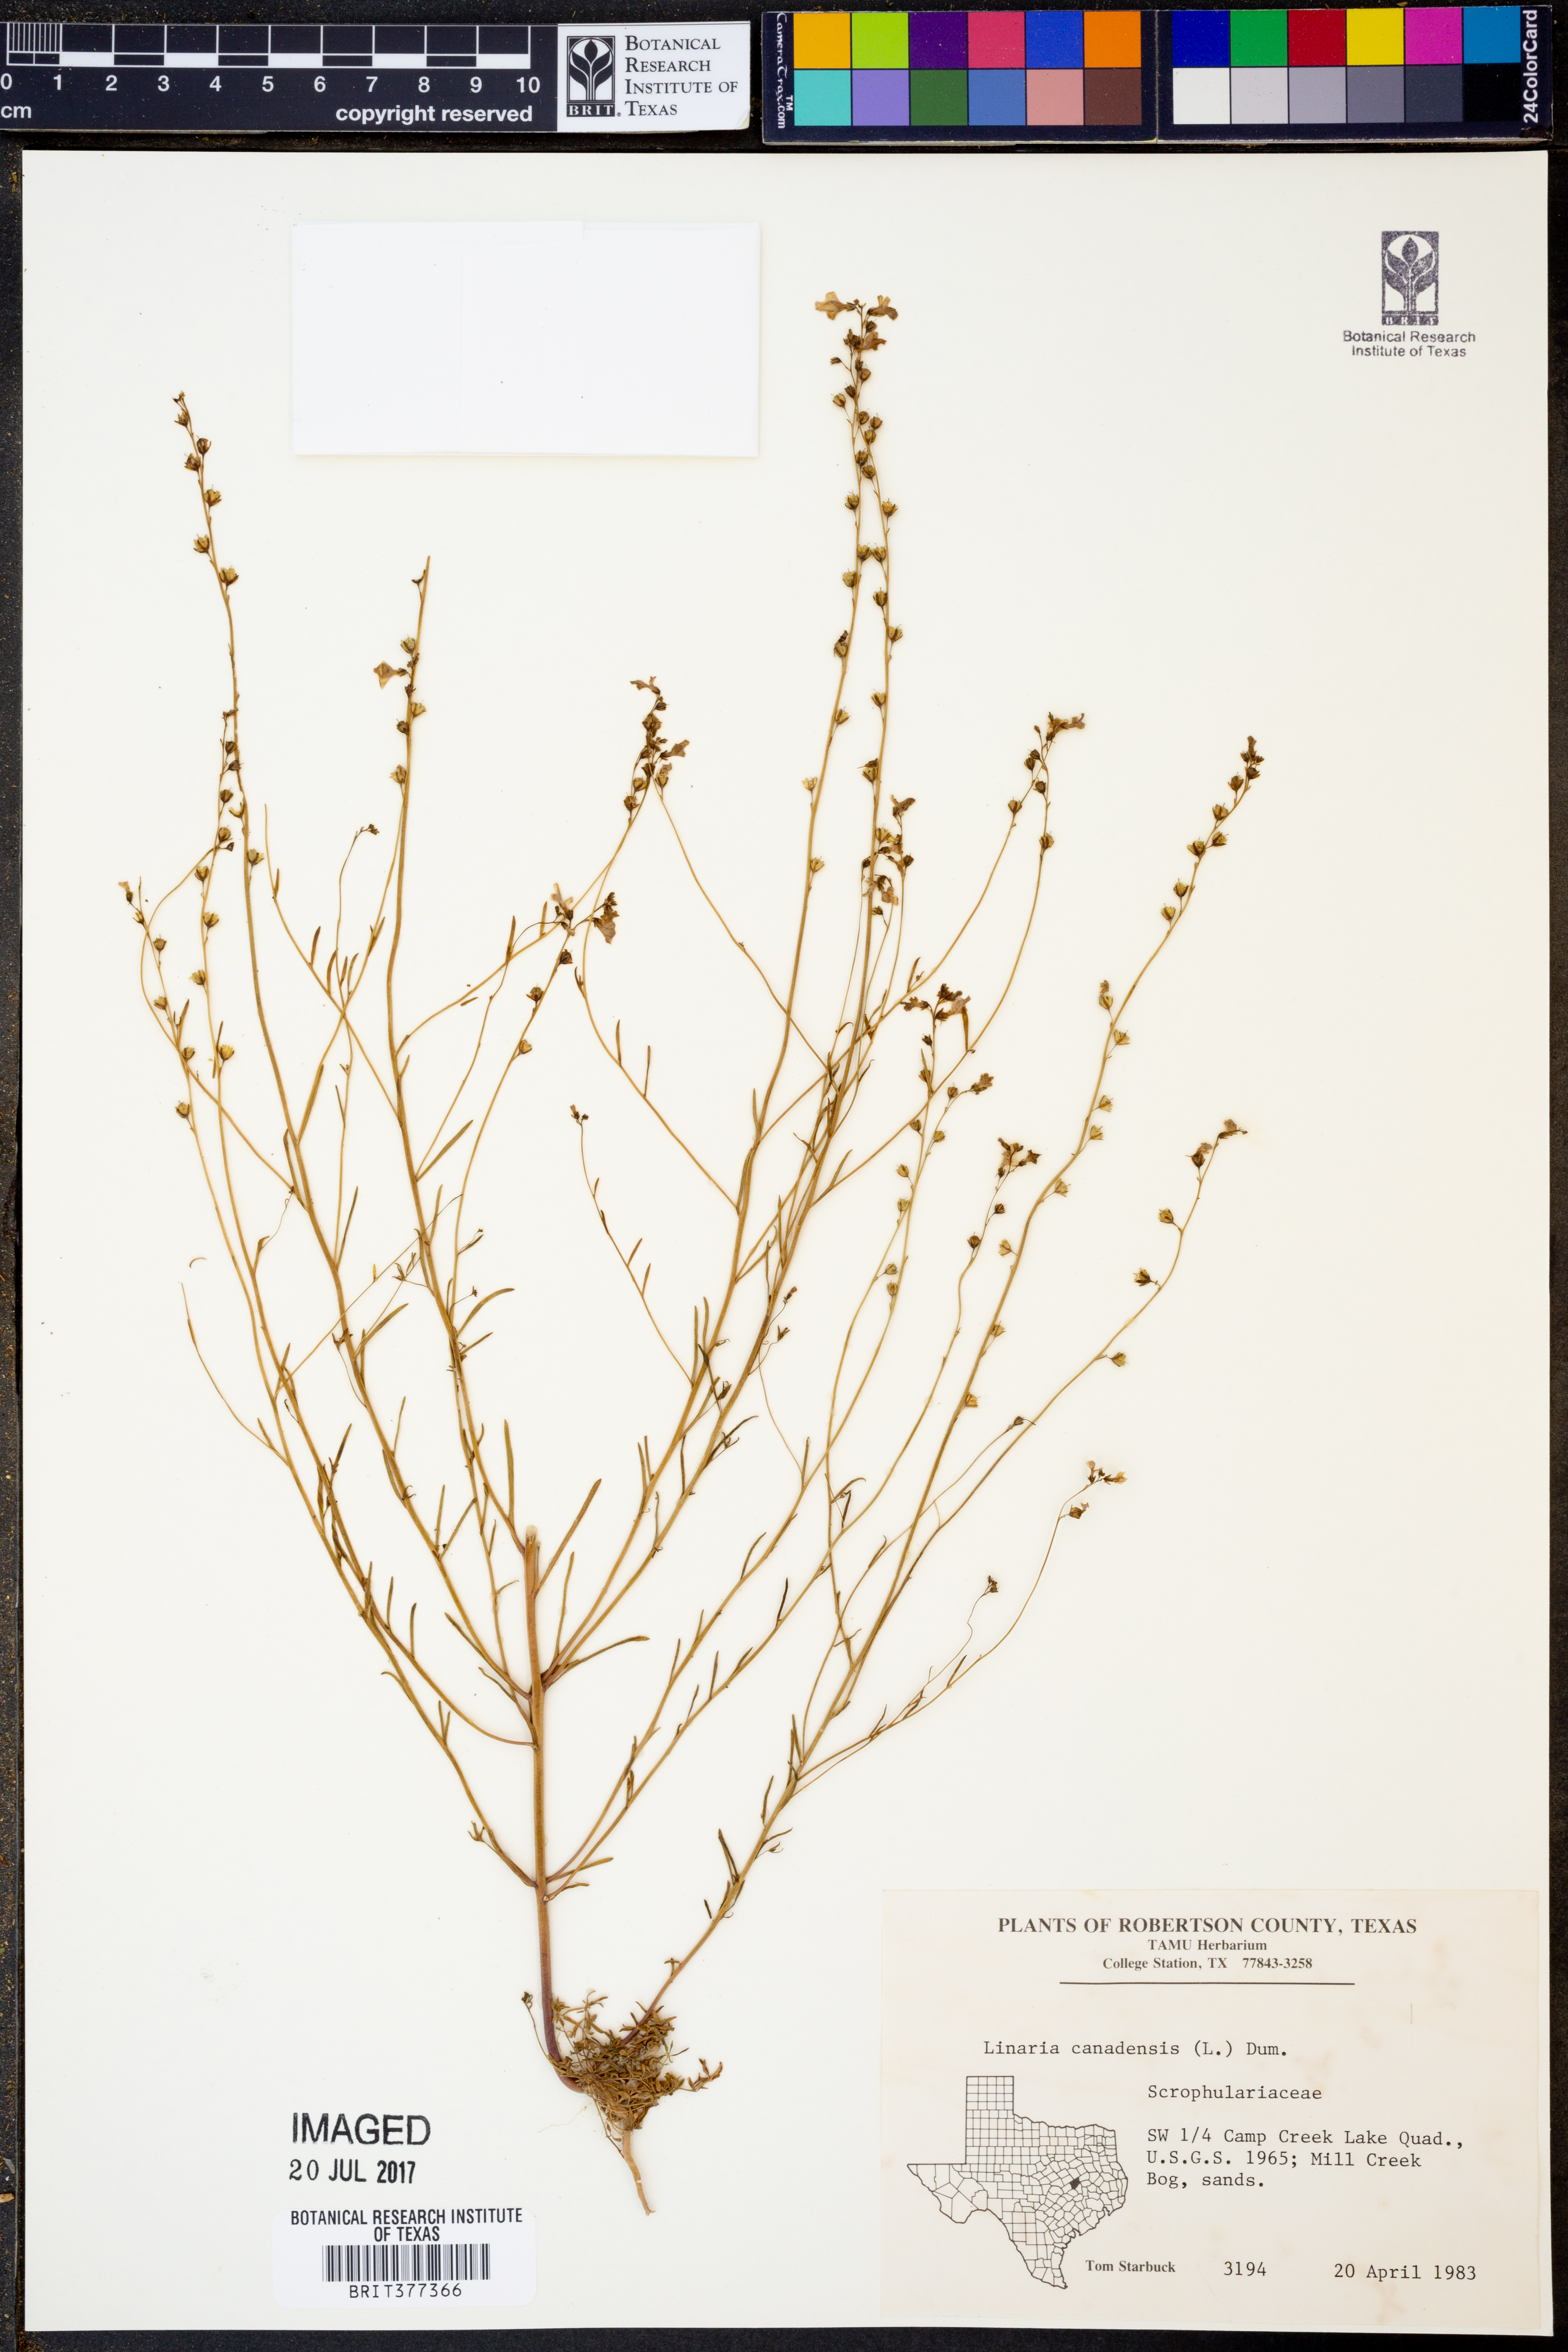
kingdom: Plantae
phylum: Tracheophyta
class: Magnoliopsida
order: Lamiales
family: Plantaginaceae
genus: Nuttallanthus
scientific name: Nuttallanthus canadensis
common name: Blue toadflax
